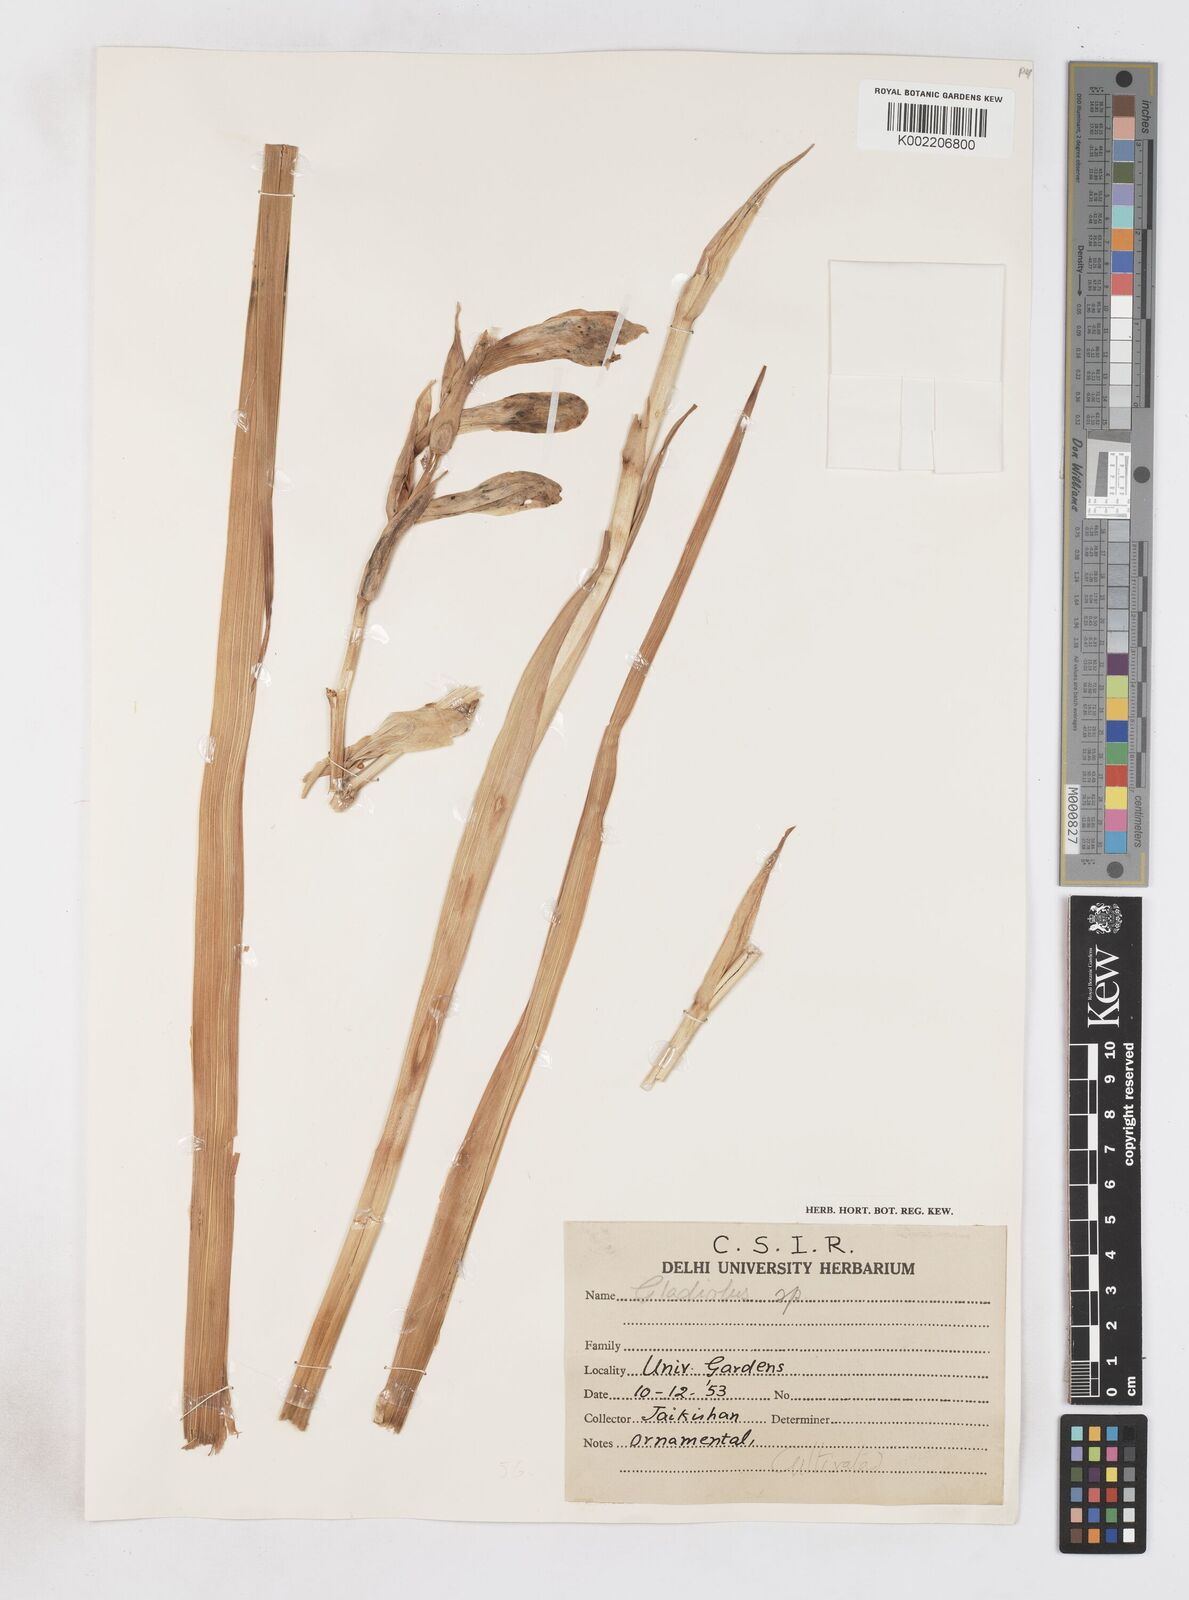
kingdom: Plantae
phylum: Tracheophyta
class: Liliopsida
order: Asparagales
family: Iridaceae
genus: Gladiolus
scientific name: Gladiolus
